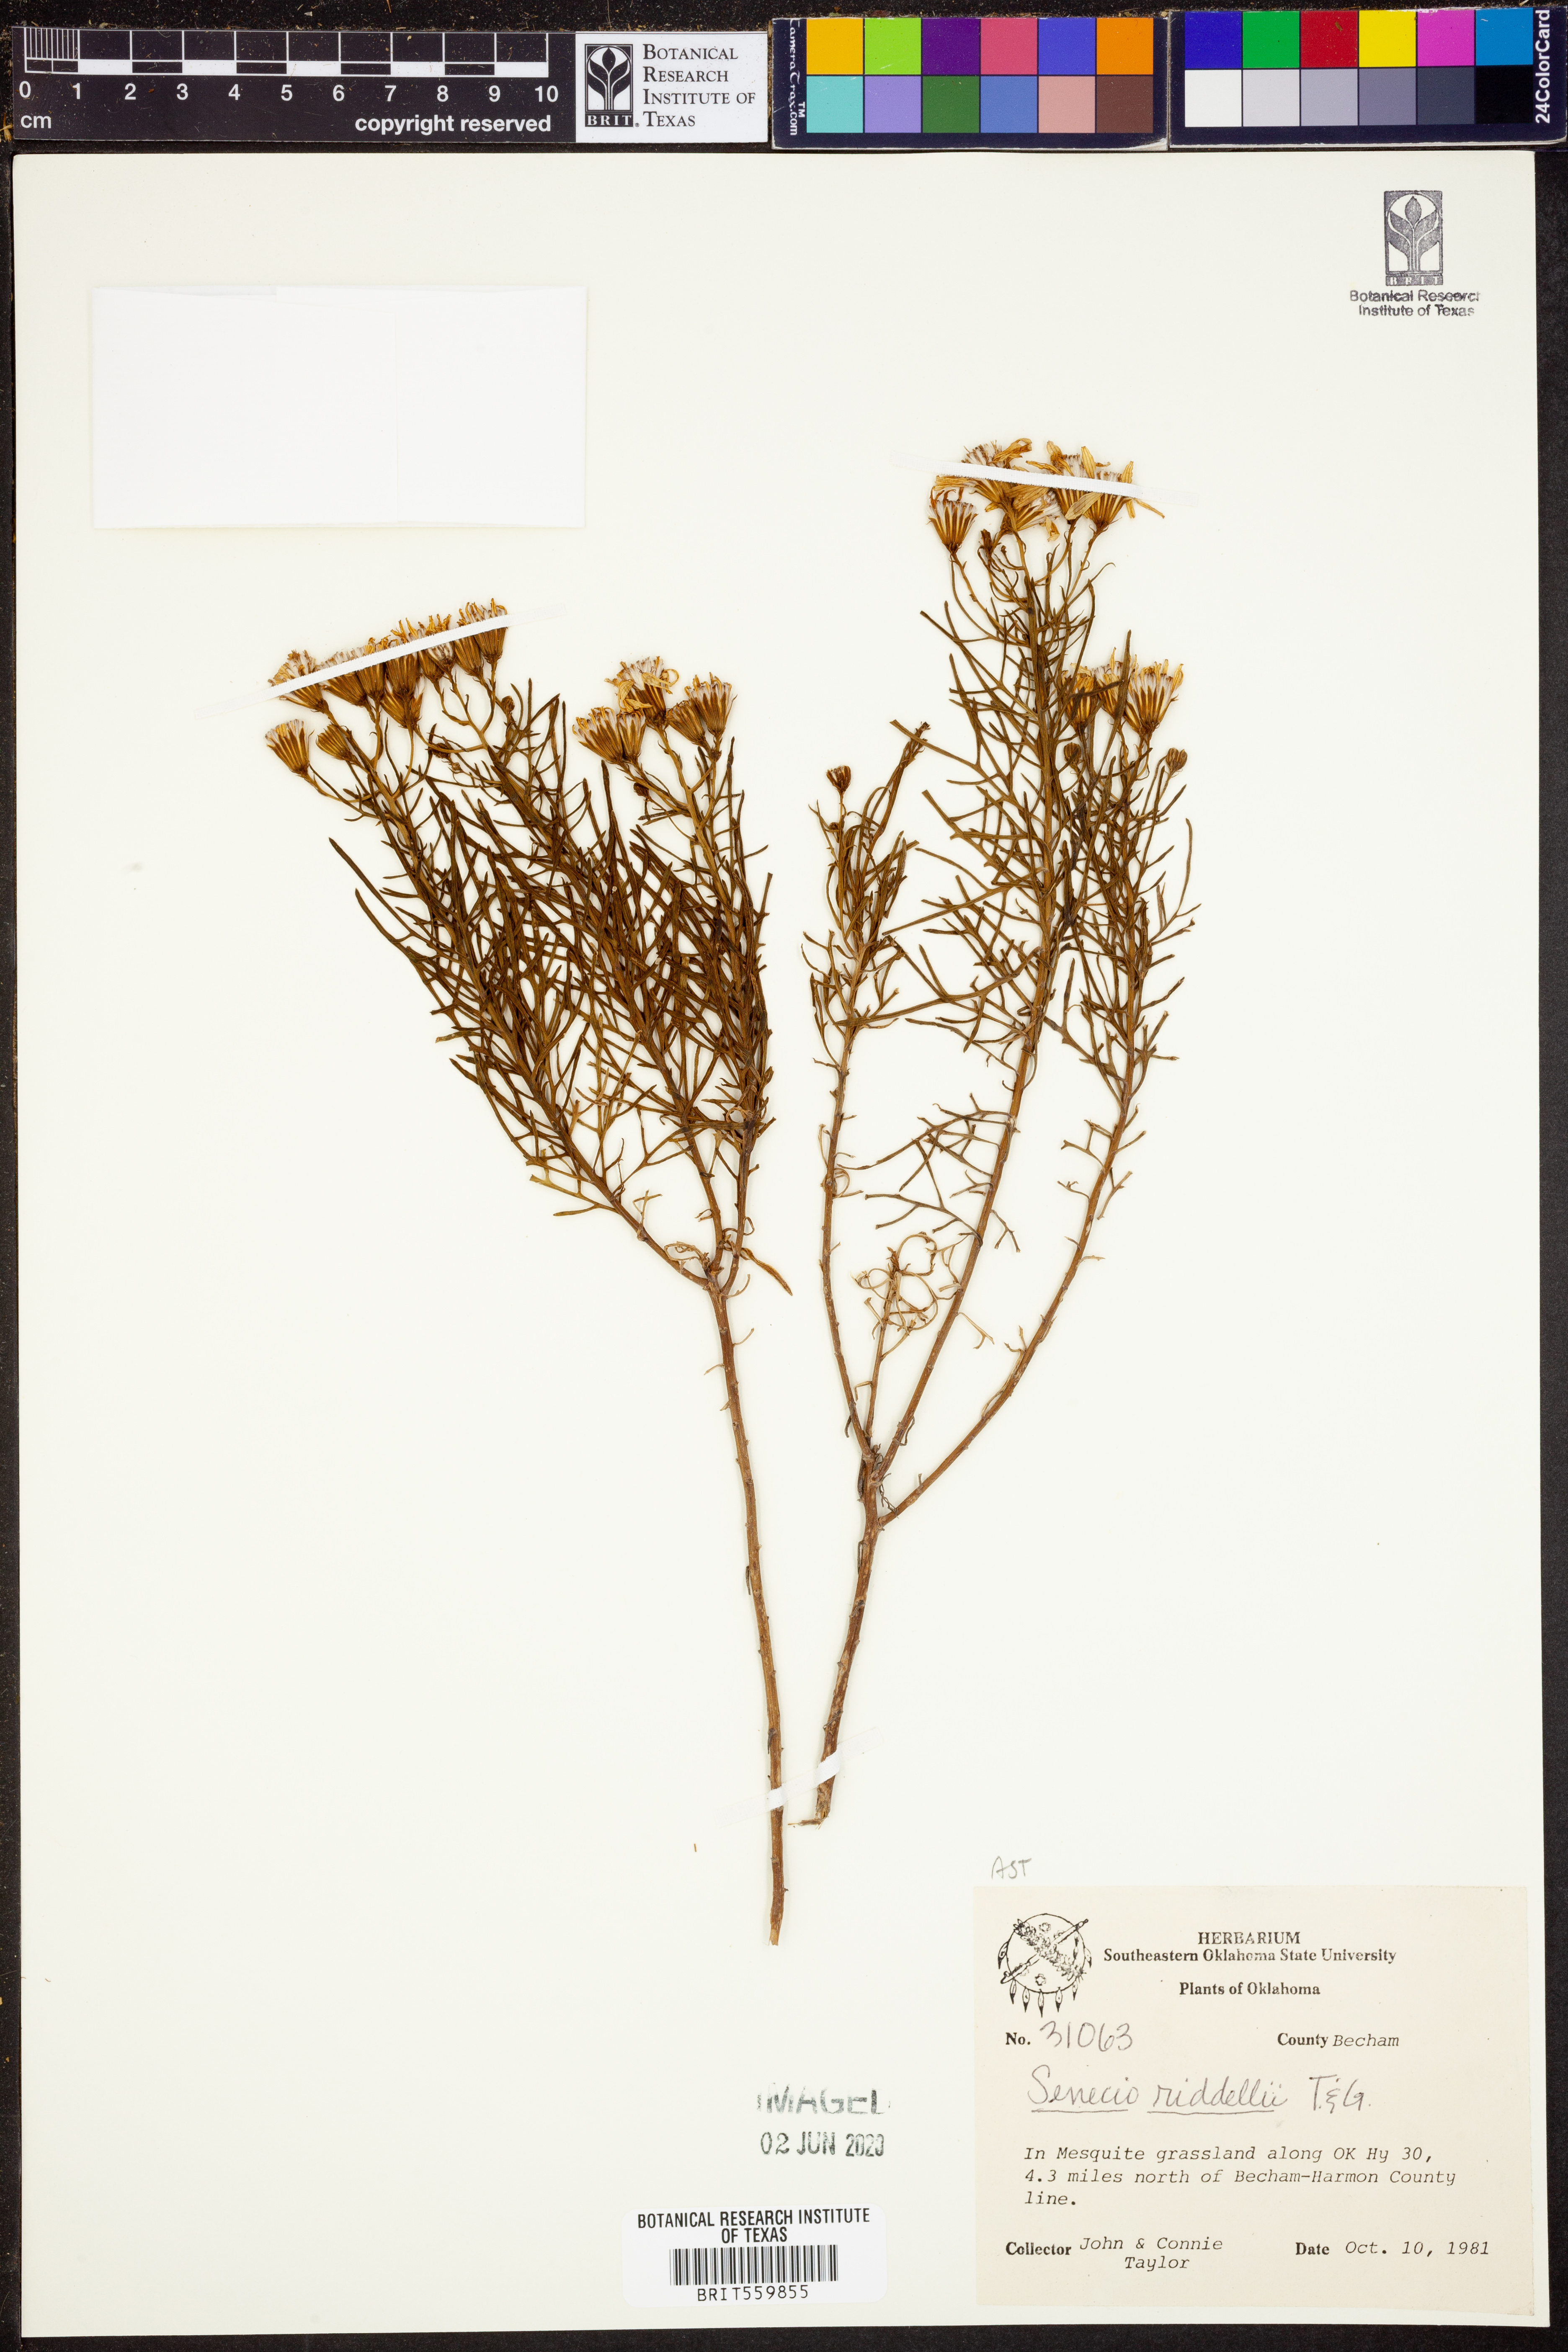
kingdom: Plantae
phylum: Tracheophyta
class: Magnoliopsida
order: Asterales
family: Asteraceae
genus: Senecio
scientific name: Senecio riddellii
